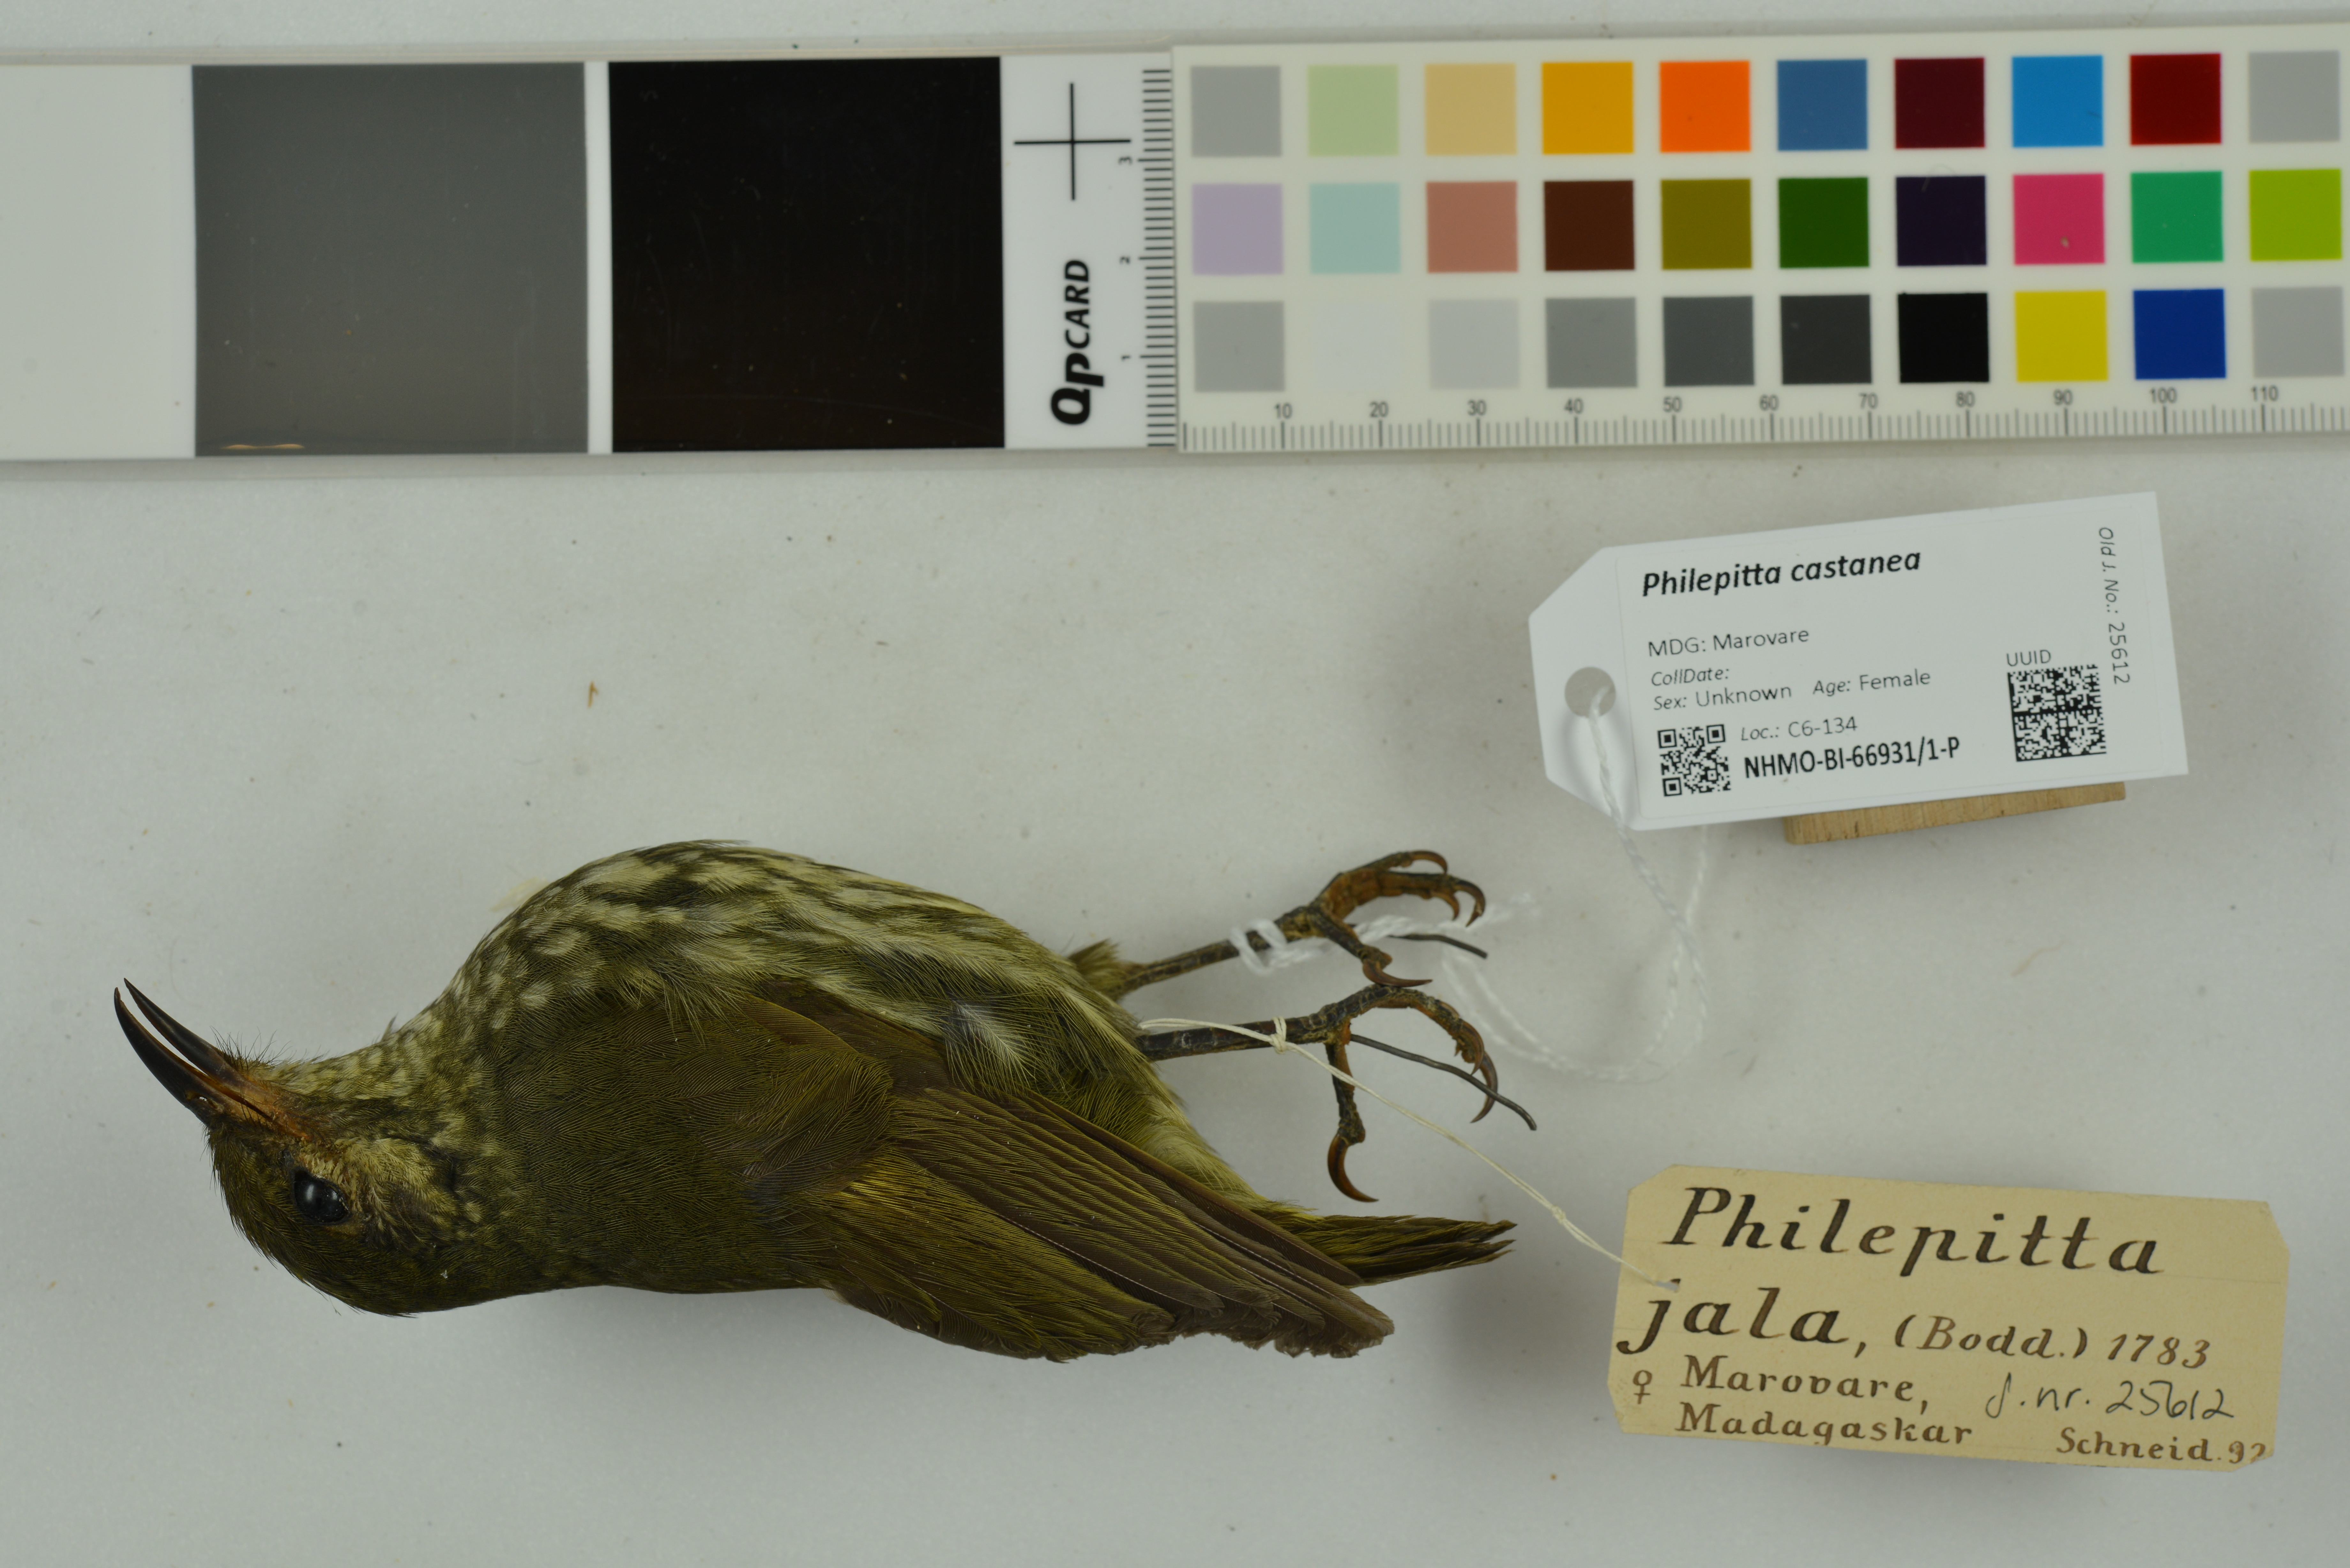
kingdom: Animalia
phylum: Chordata
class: Aves
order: Passeriformes
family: Philepittidae
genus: Philepitta
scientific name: Philepitta castanea
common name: Velvet asity
